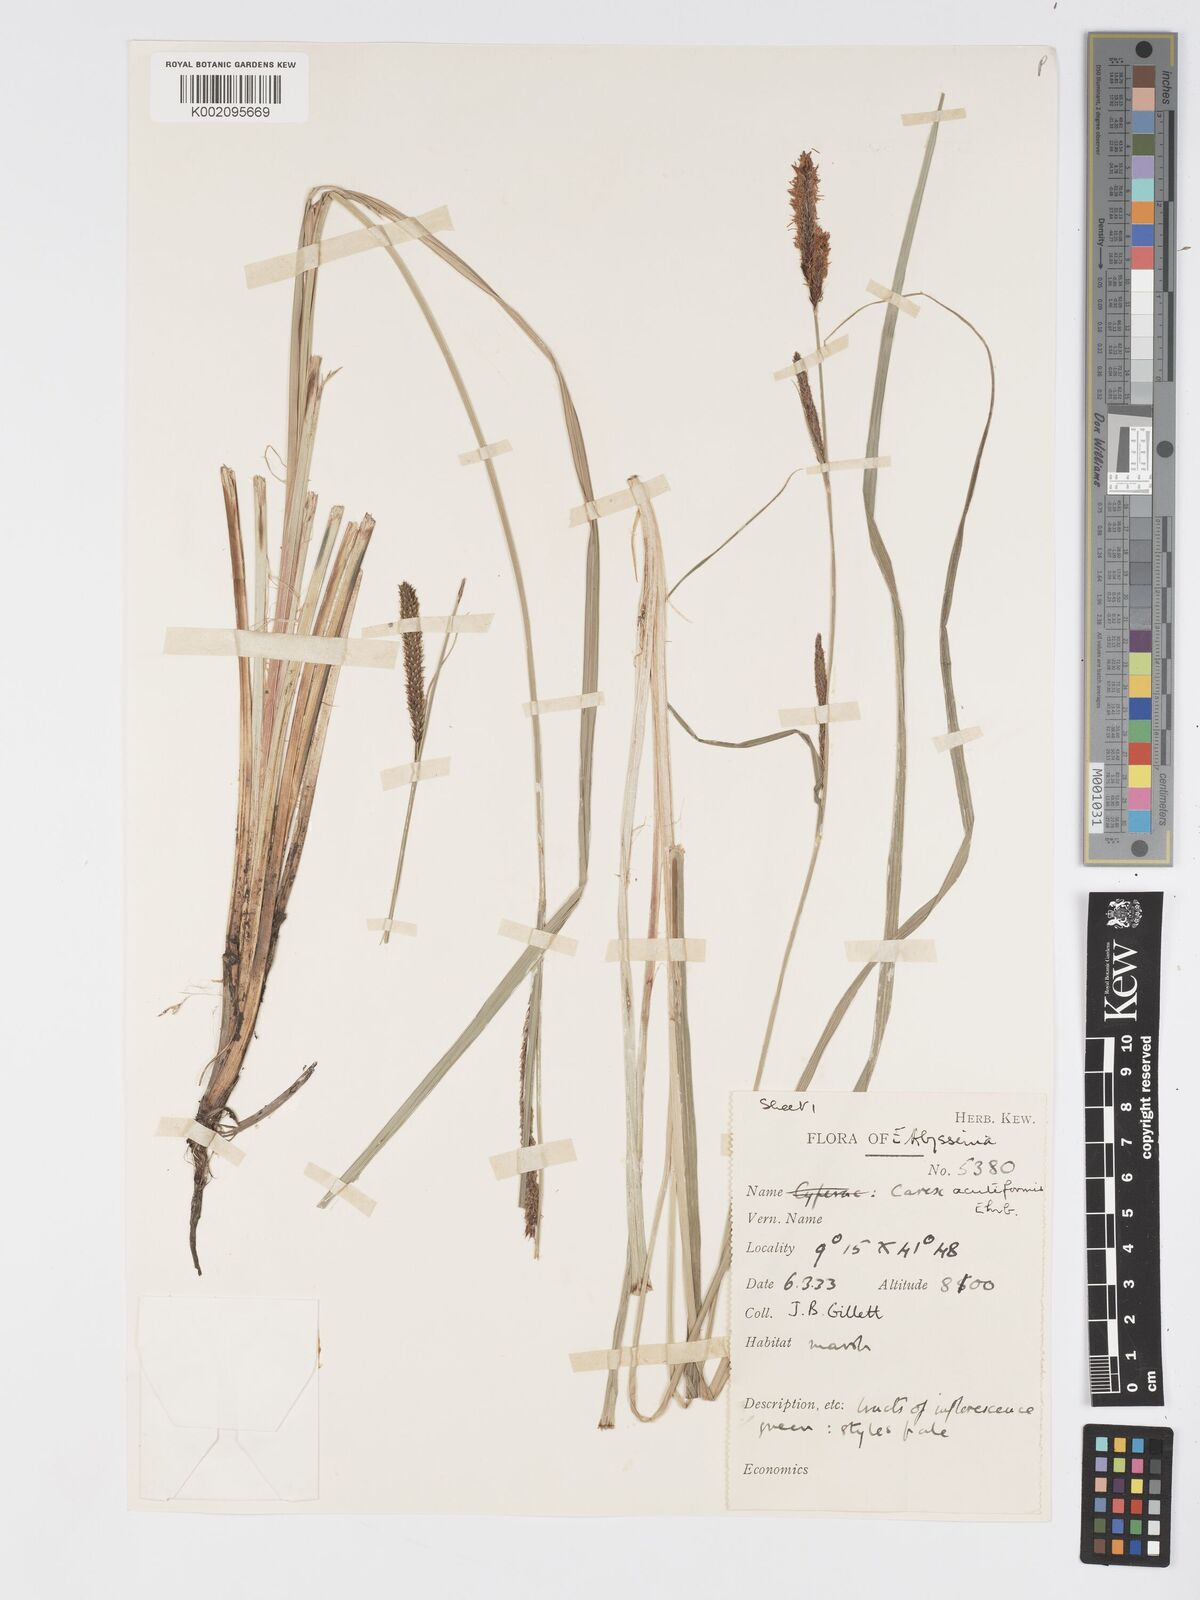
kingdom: Plantae
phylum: Tracheophyta
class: Liliopsida
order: Poales
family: Cyperaceae
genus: Carex
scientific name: Carex acutiformis
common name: Lesser pond-sedge
